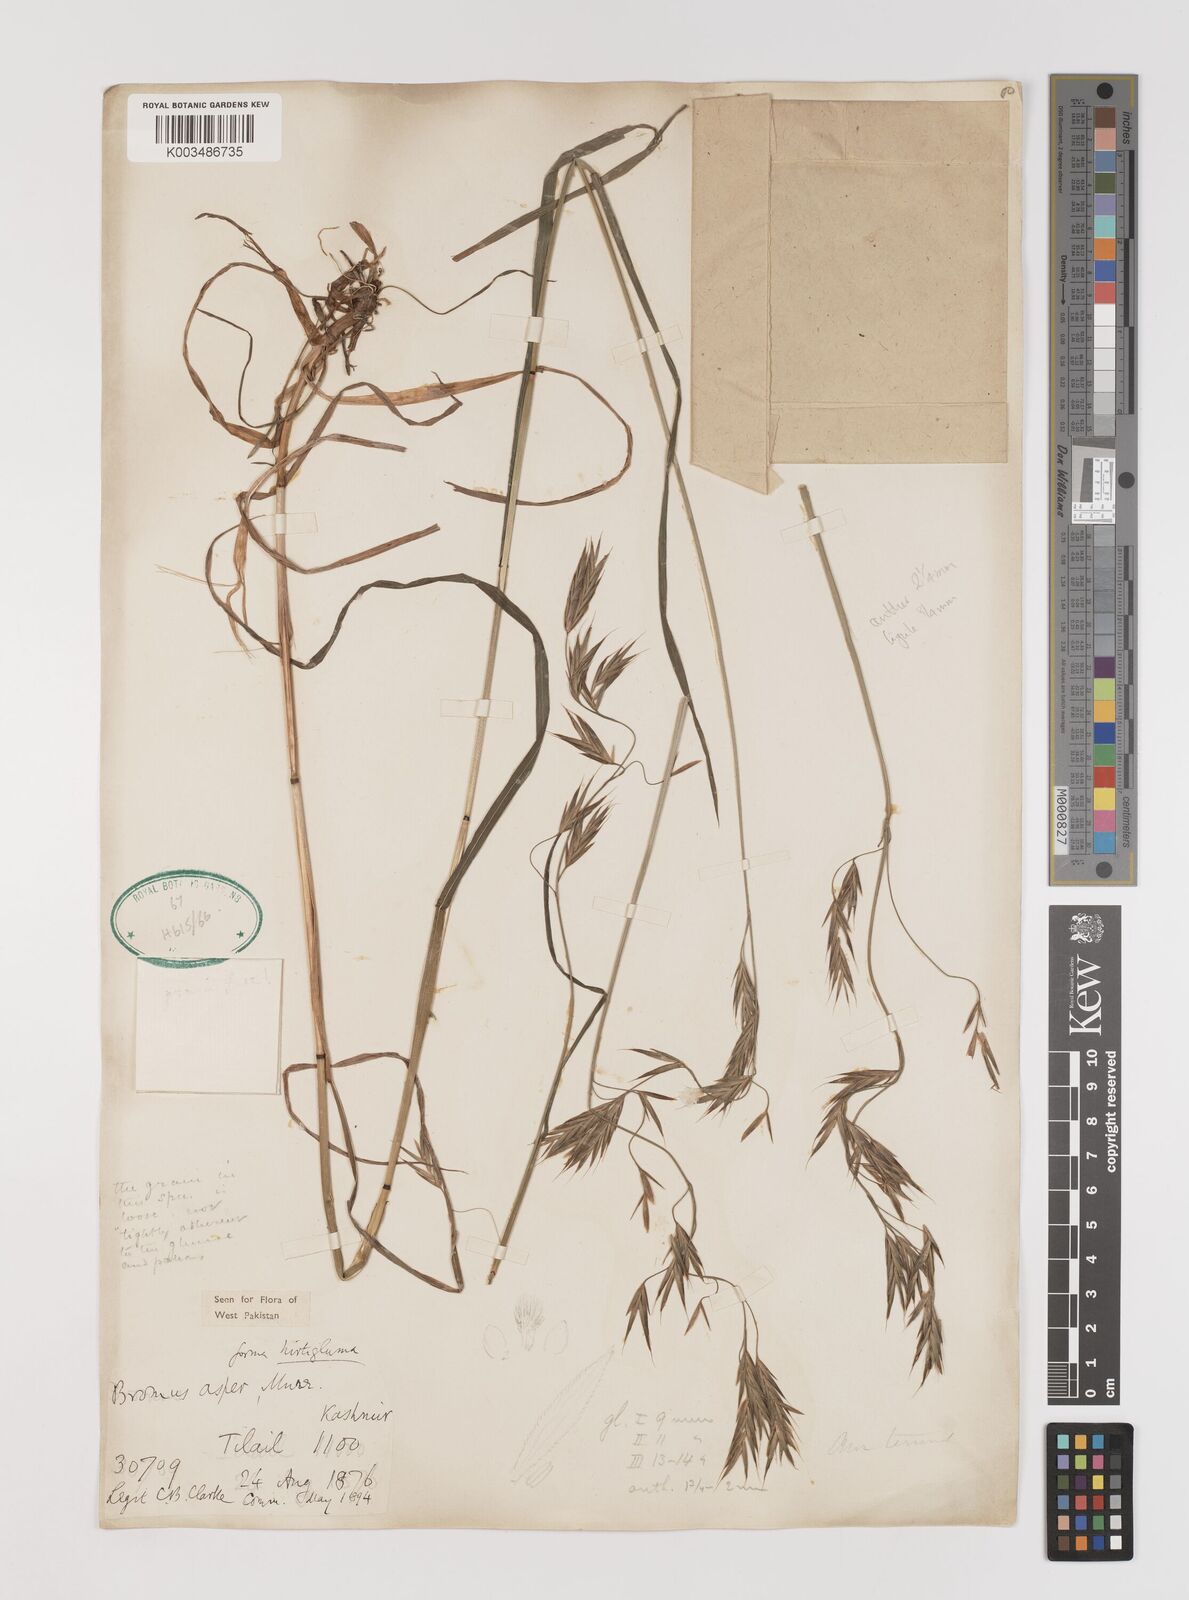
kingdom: Plantae
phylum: Tracheophyta
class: Liliopsida
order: Poales
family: Poaceae
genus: Brachypodium
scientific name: Brachypodium retusum
